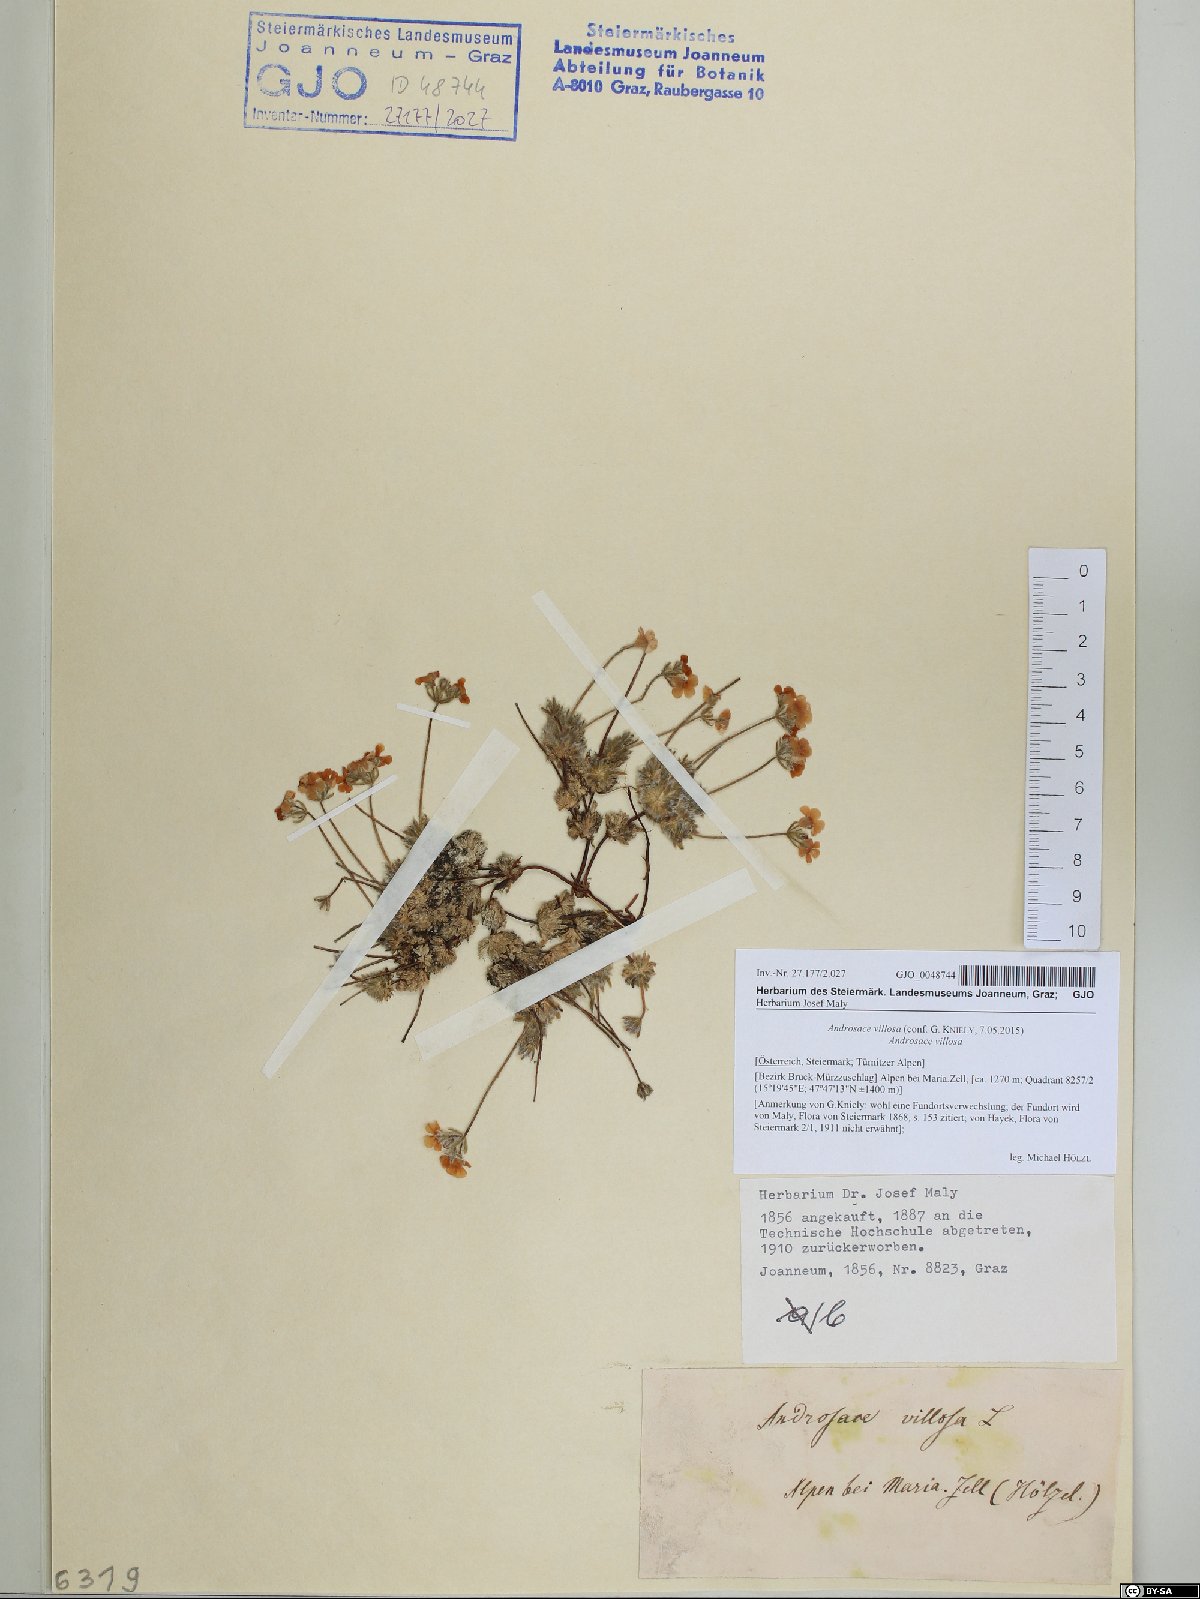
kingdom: Plantae
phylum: Tracheophyta
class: Magnoliopsida
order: Ericales
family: Primulaceae
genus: Androsace
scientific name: Androsace villosa
